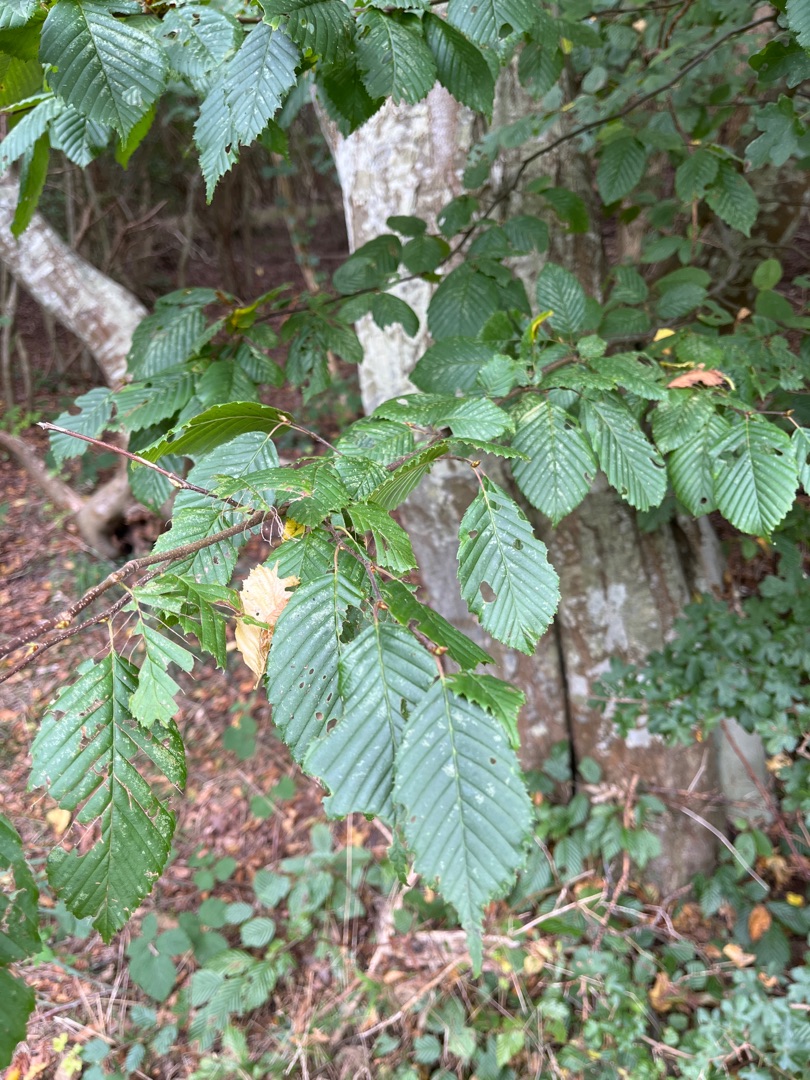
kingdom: Plantae
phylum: Tracheophyta
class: Magnoliopsida
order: Fagales
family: Betulaceae
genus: Carpinus
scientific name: Carpinus betulus
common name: Avnbøg
